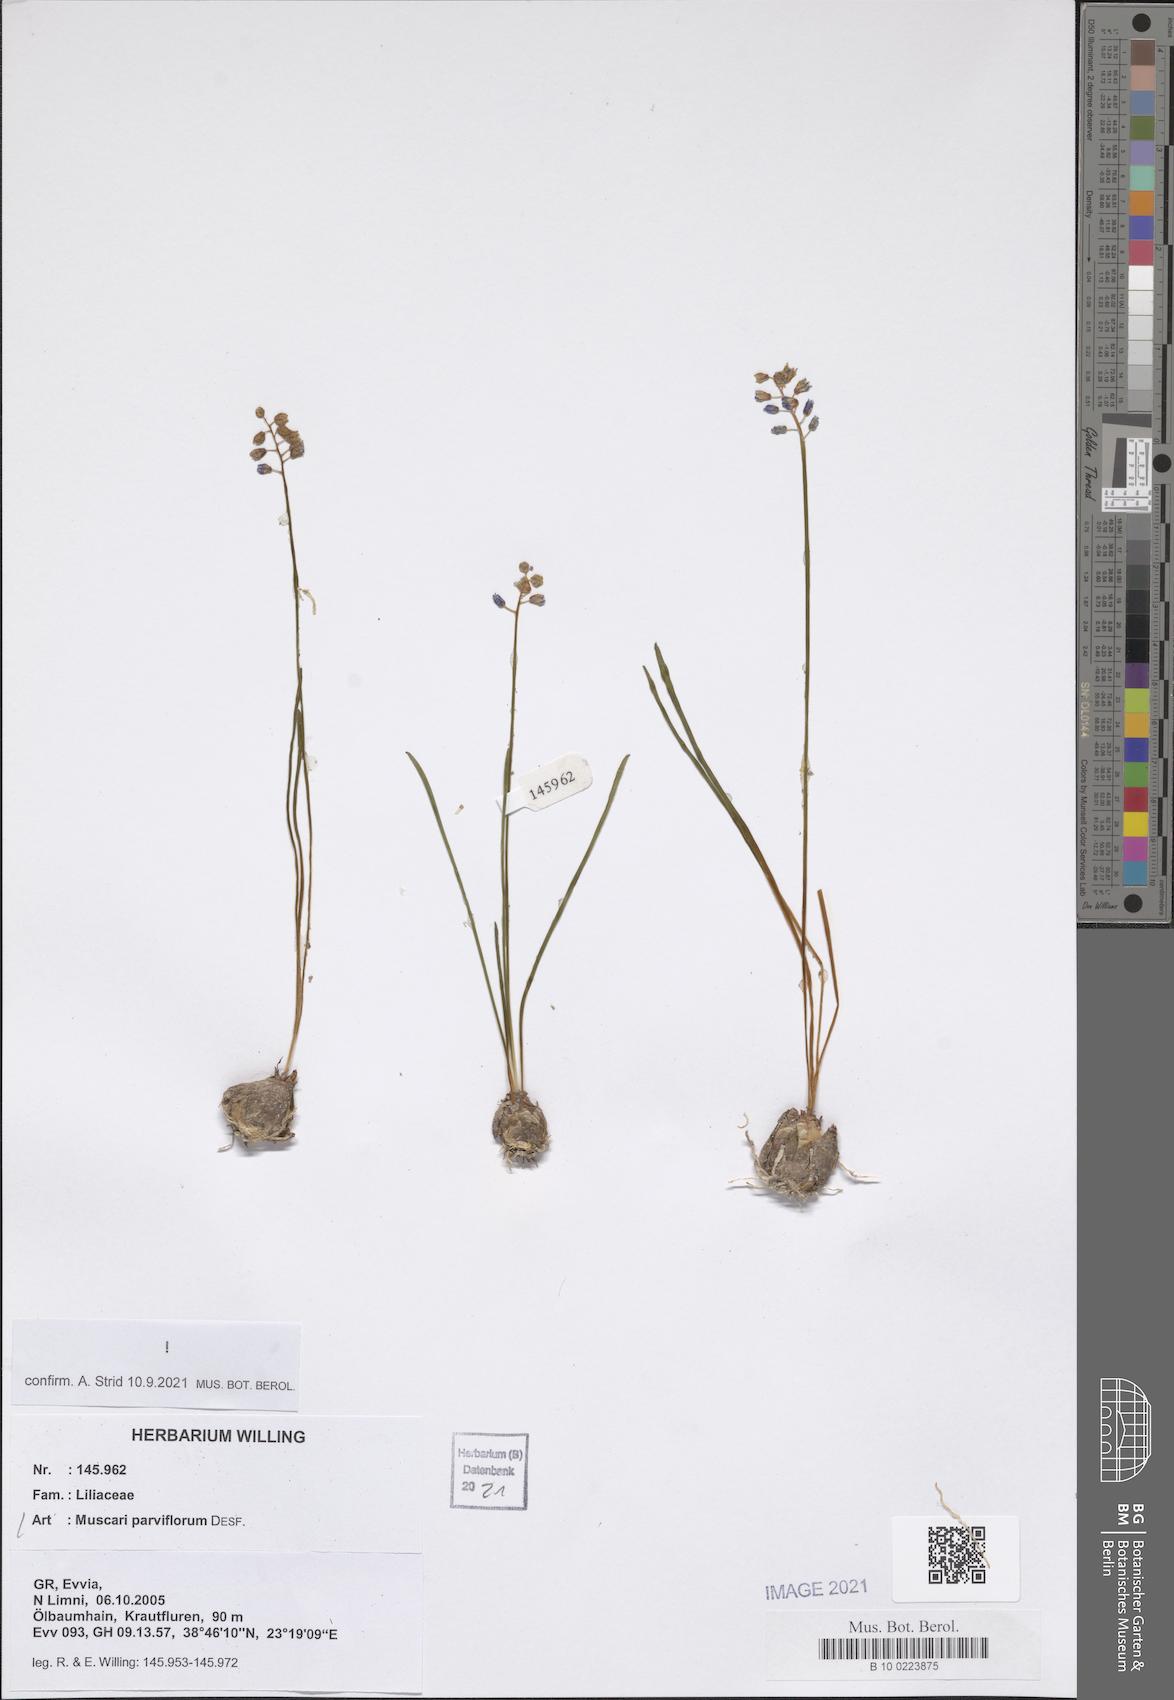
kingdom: Plantae
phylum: Tracheophyta
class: Liliopsida
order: Asparagales
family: Asparagaceae
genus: Muscari
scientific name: Muscari parviflorum
